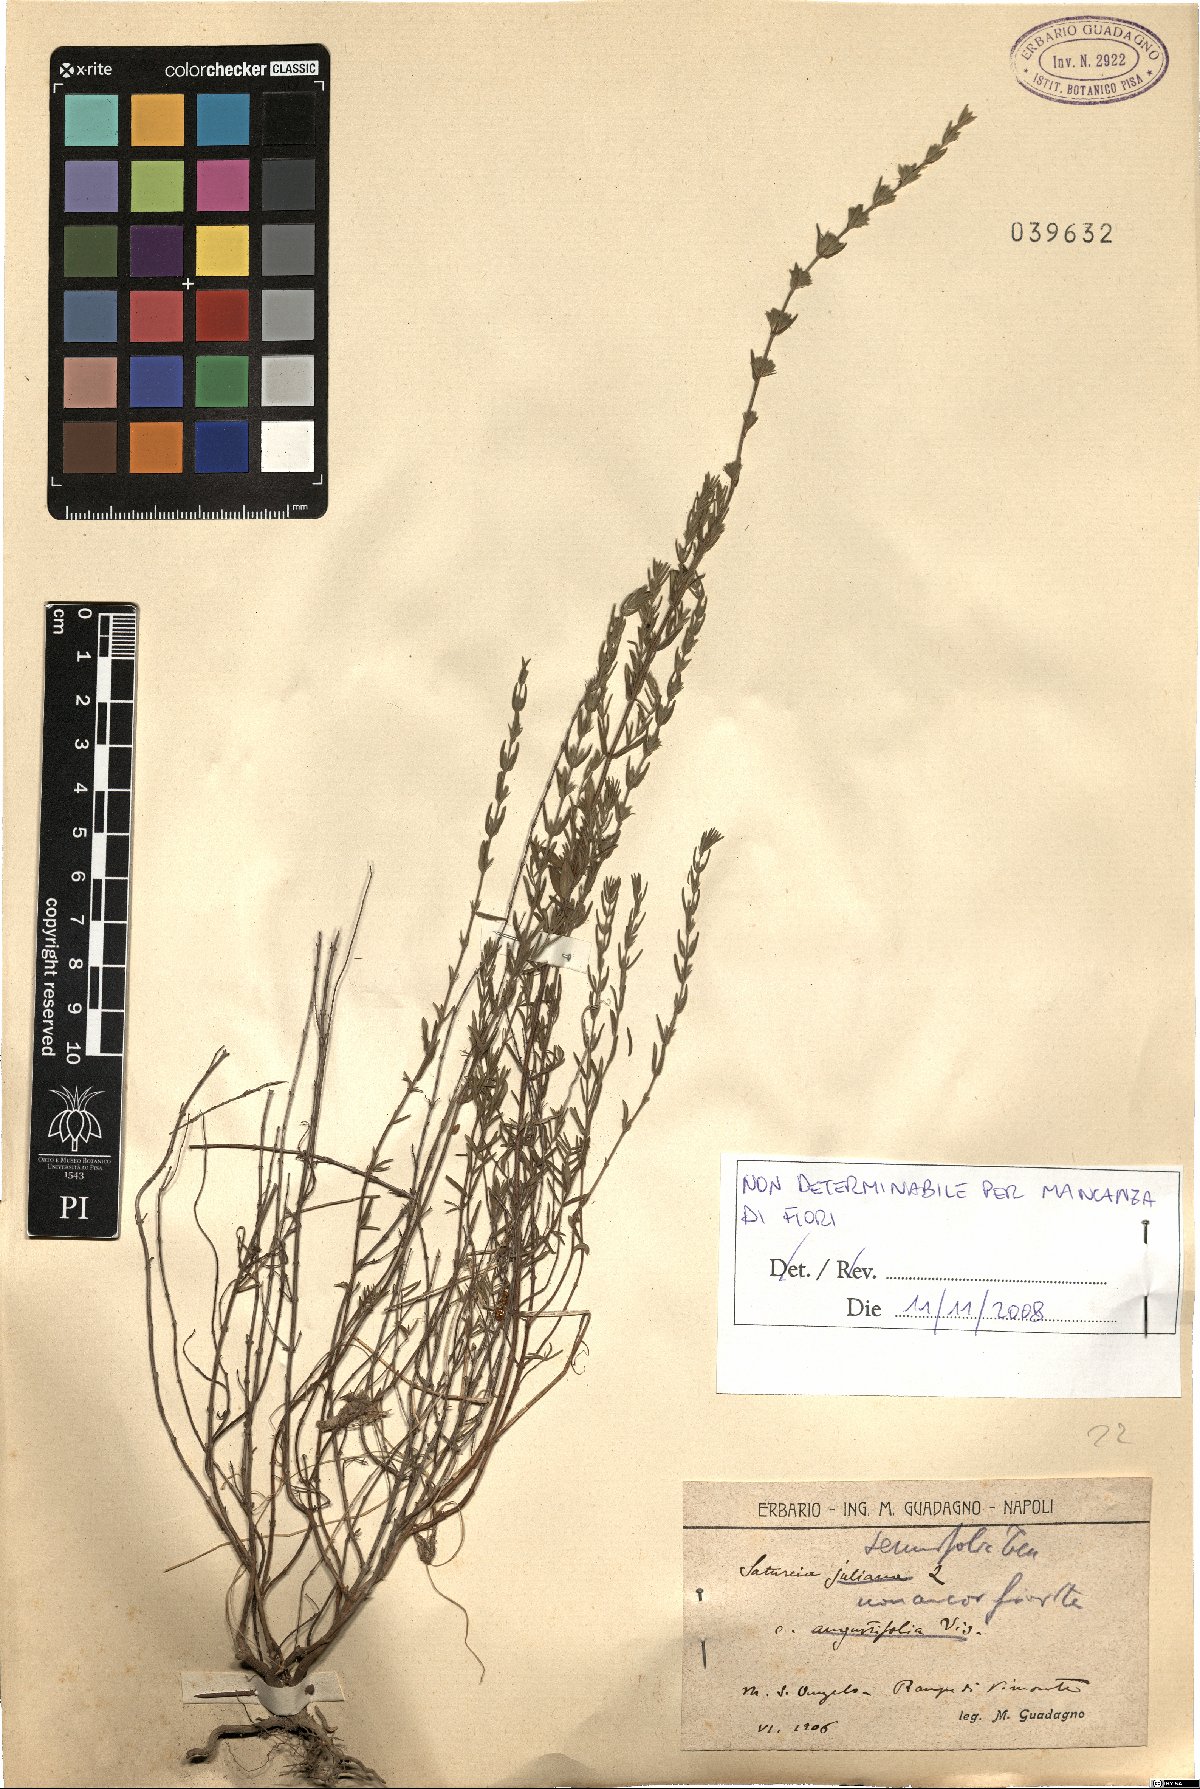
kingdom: Plantae
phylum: Tracheophyta
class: Magnoliopsida
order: Lamiales
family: Lamiaceae
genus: Micromeria
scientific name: Micromeria graeca
